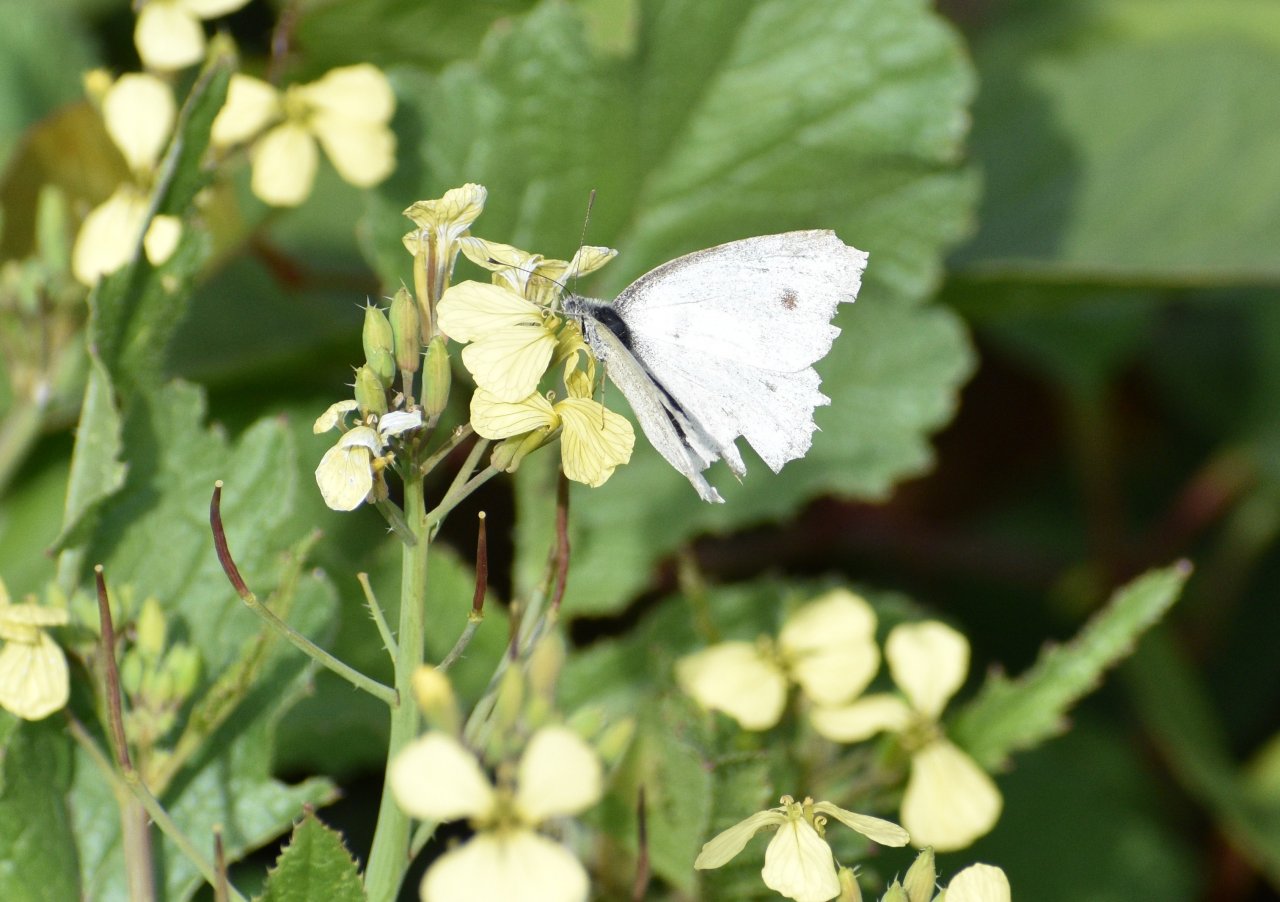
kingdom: Animalia
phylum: Arthropoda
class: Insecta
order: Lepidoptera
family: Pieridae
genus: Pieris
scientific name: Pieris rapae
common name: Cabbage White
